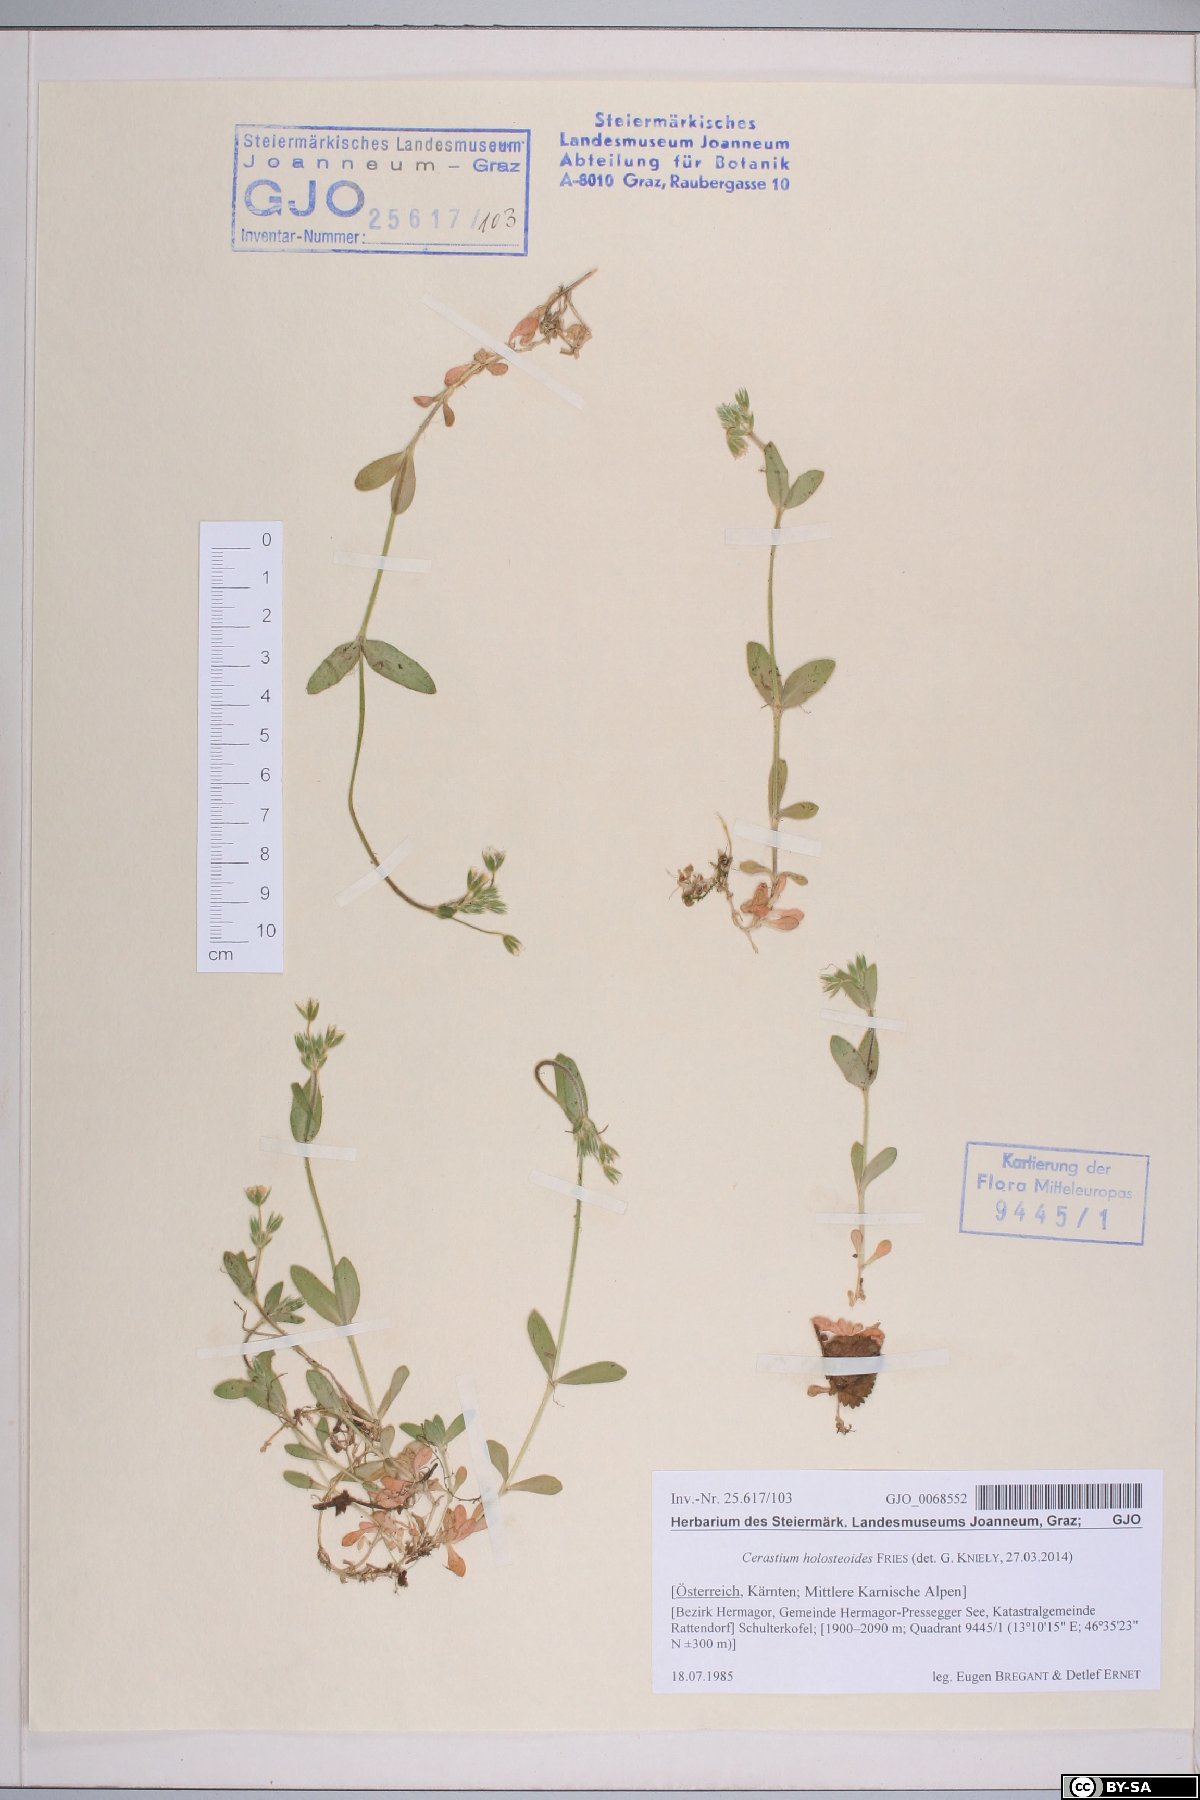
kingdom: Plantae
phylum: Tracheophyta
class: Magnoliopsida
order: Caryophyllales
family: Caryophyllaceae
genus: Cerastium
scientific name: Cerastium holosteoides
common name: Big chickweed
